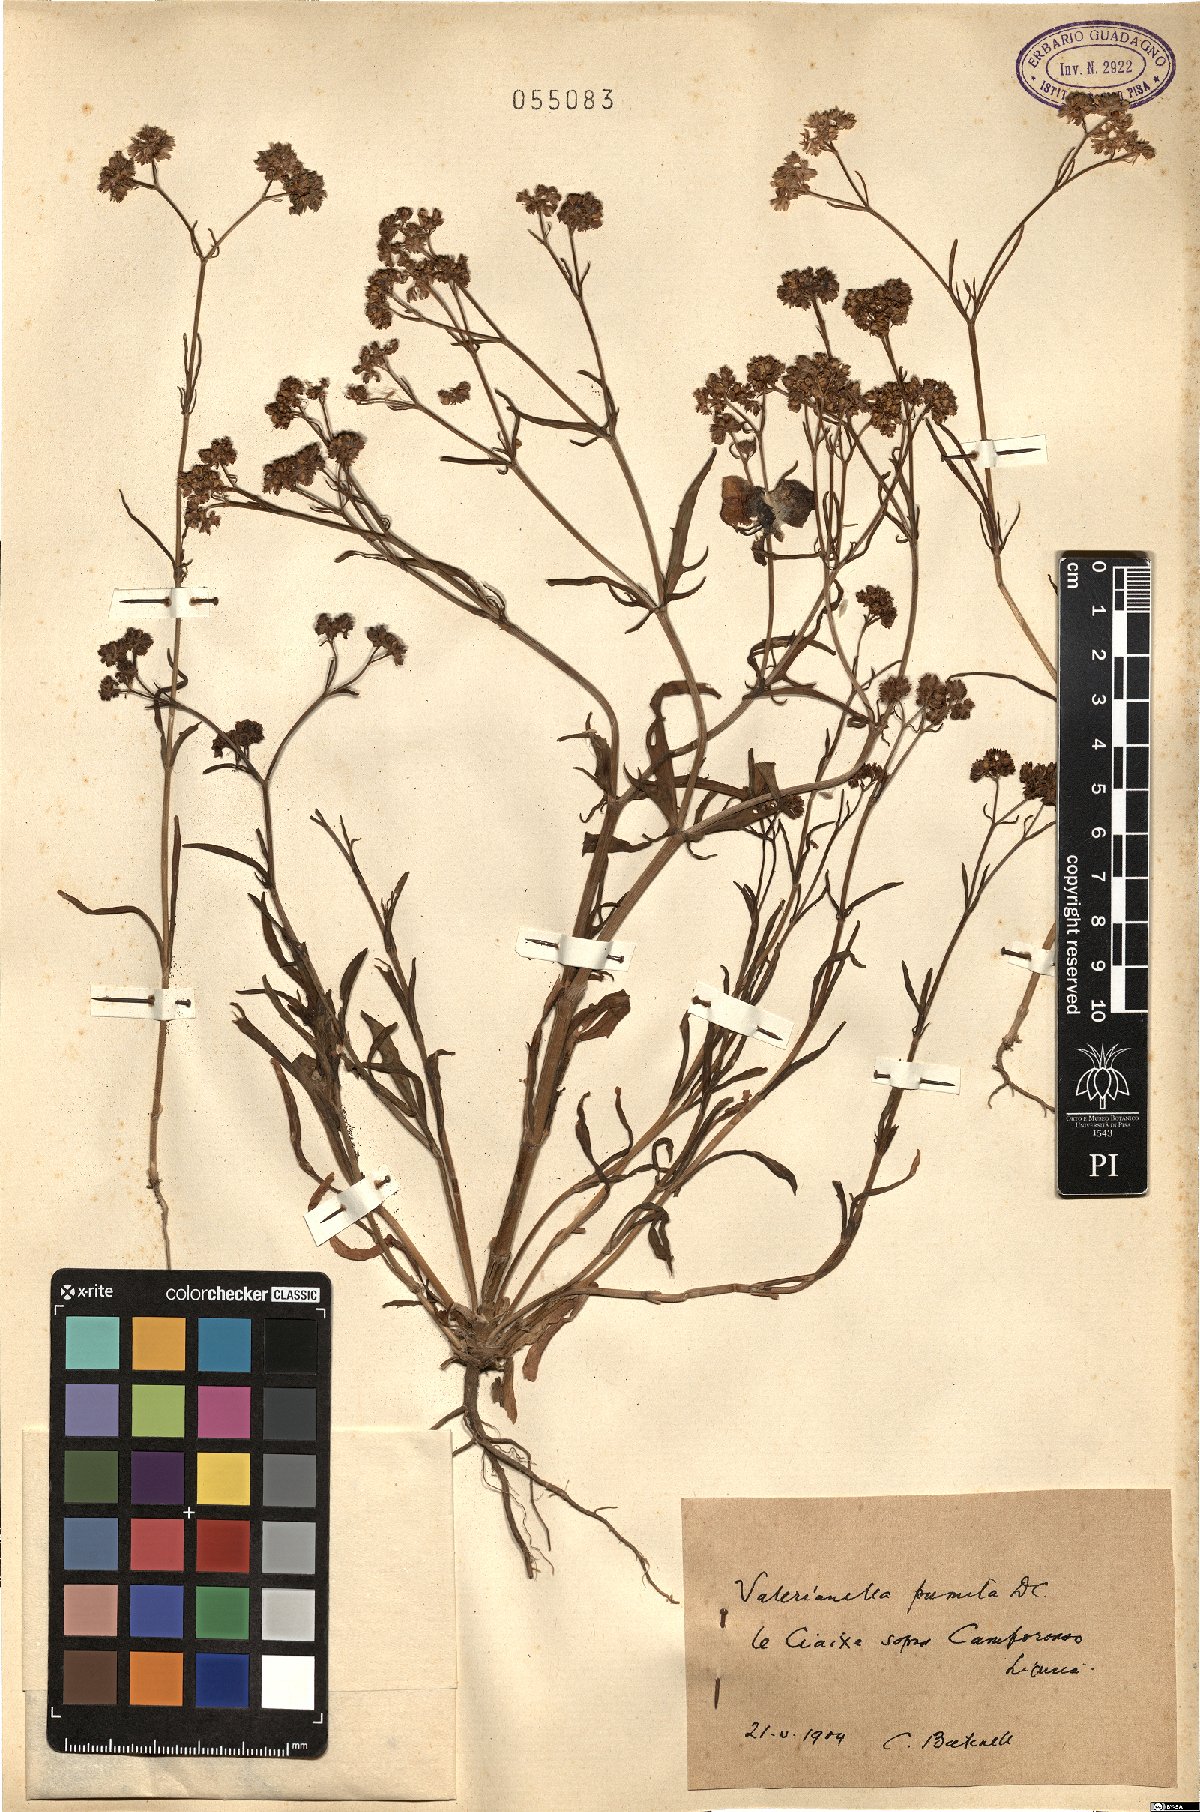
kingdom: Plantae
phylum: Tracheophyta
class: Magnoliopsida
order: Dipsacales
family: Caprifoliaceae
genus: Valerianella
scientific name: Valerianella echinata
